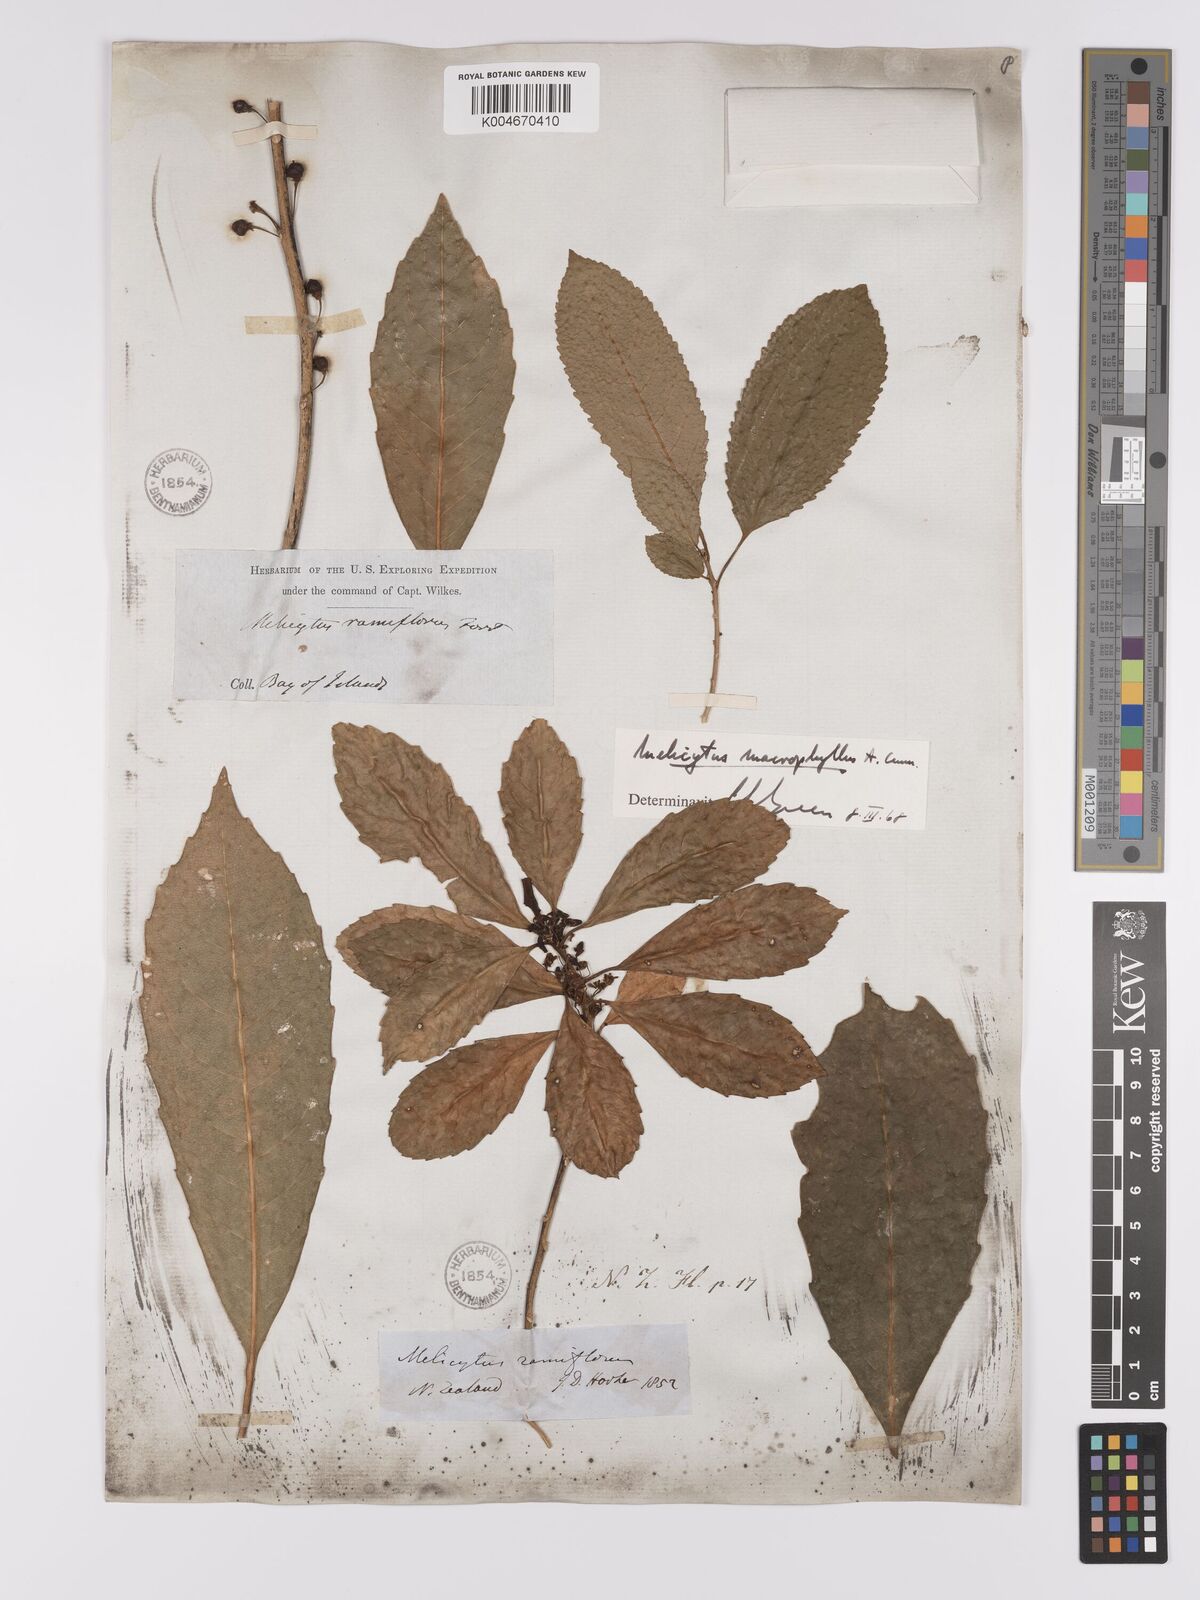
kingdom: Plantae
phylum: Tracheophyta
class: Magnoliopsida
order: Malpighiales
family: Violaceae
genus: Melicytus
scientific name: Melicytus macrophyllus
